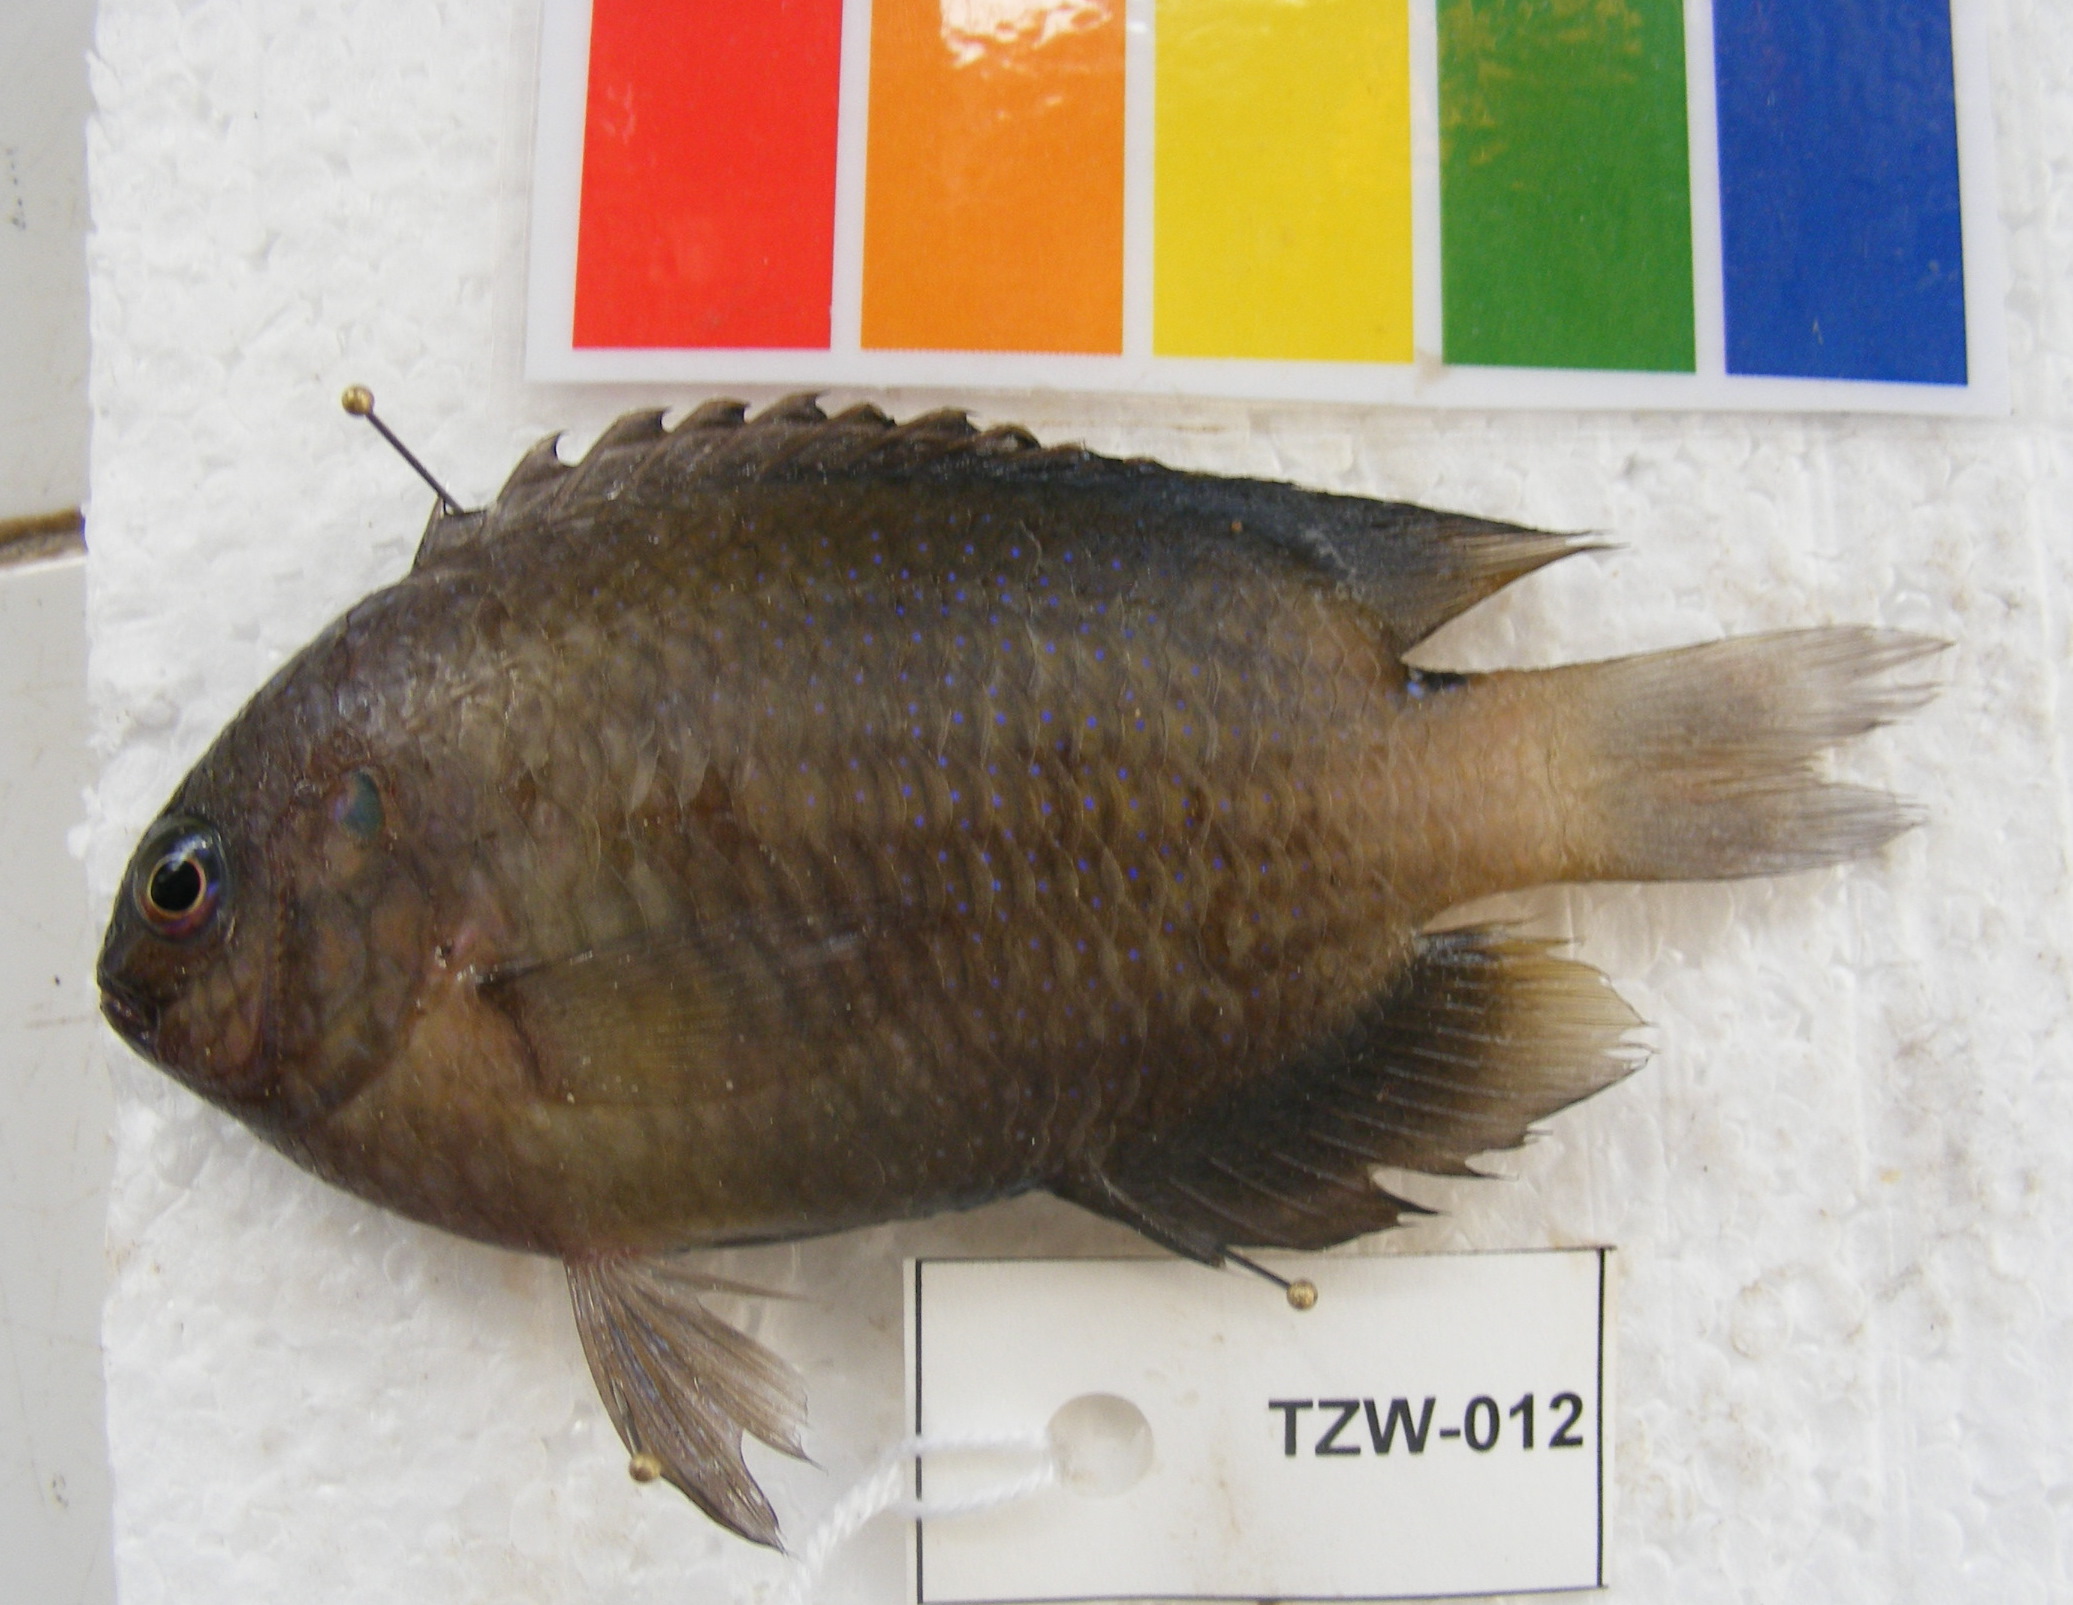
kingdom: Animalia
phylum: Chordata
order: Perciformes
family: Pomacentridae
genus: Pomacentrus
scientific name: Pomacentrus
